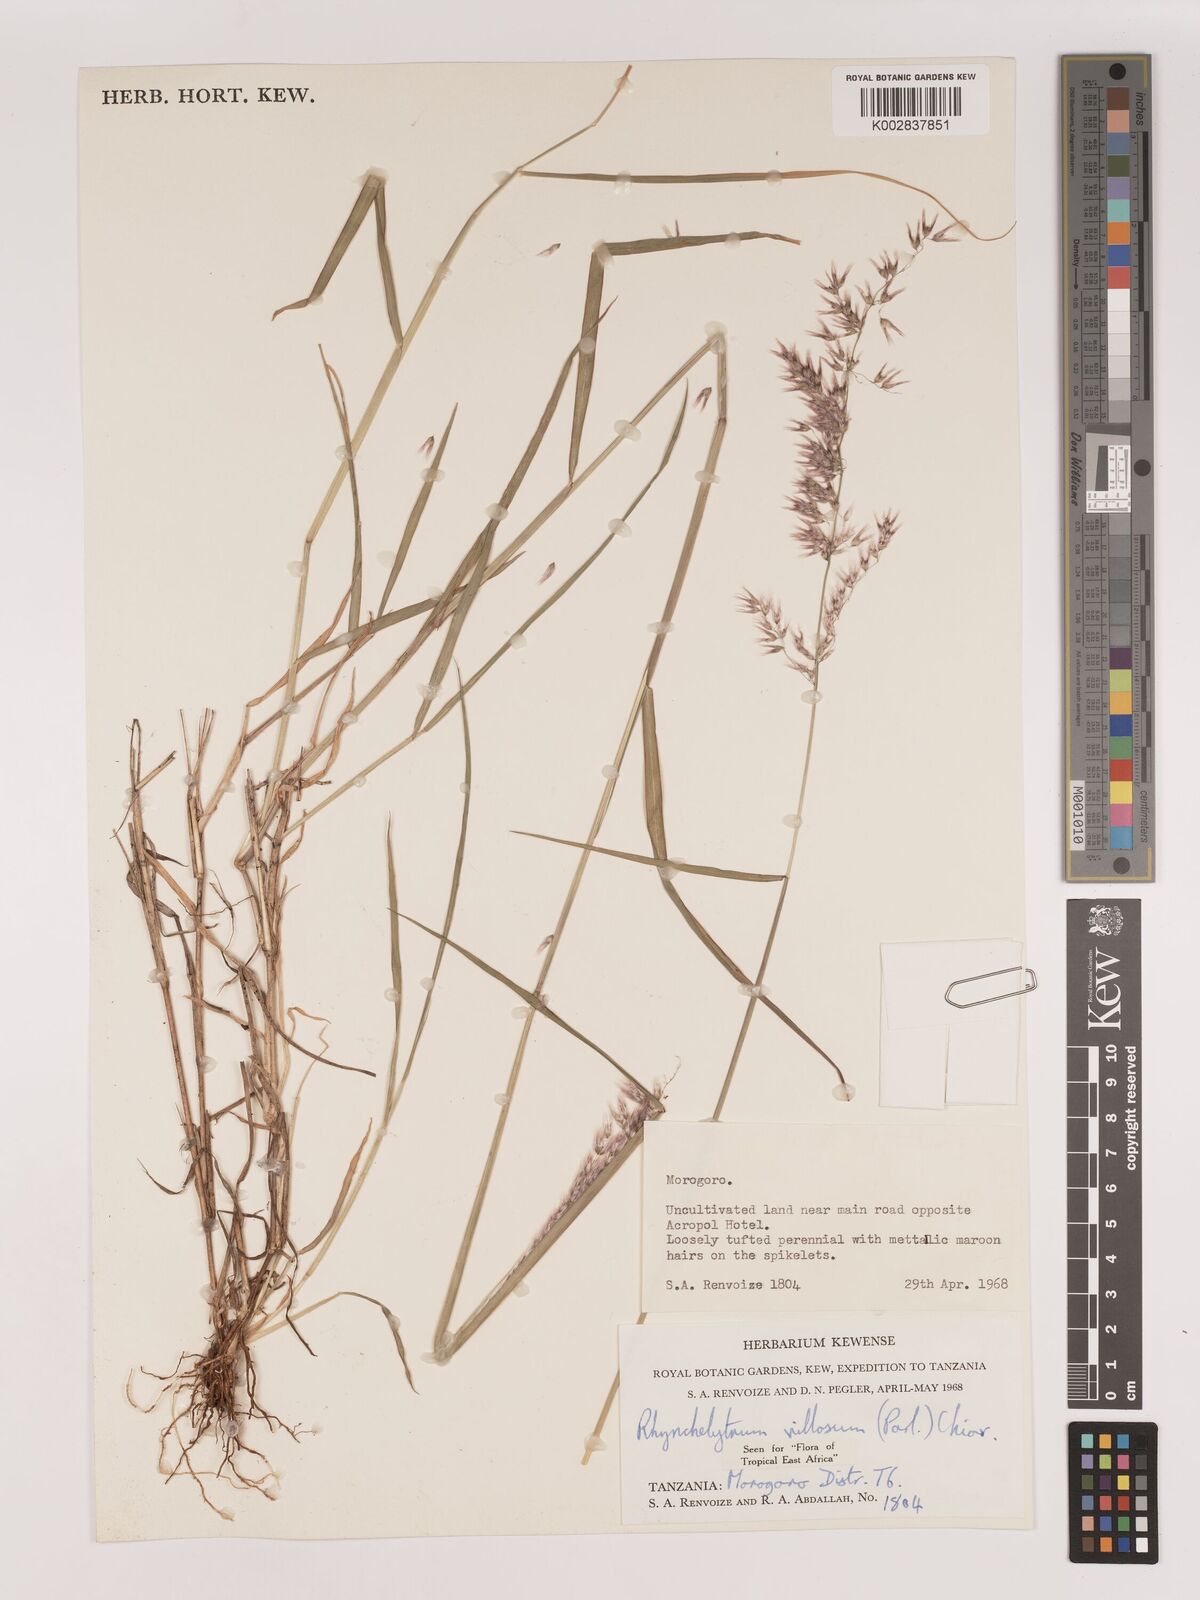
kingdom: Plantae
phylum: Tracheophyta
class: Liliopsida
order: Poales
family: Poaceae
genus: Melinis
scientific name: Melinis repens
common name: Rose natal grass
